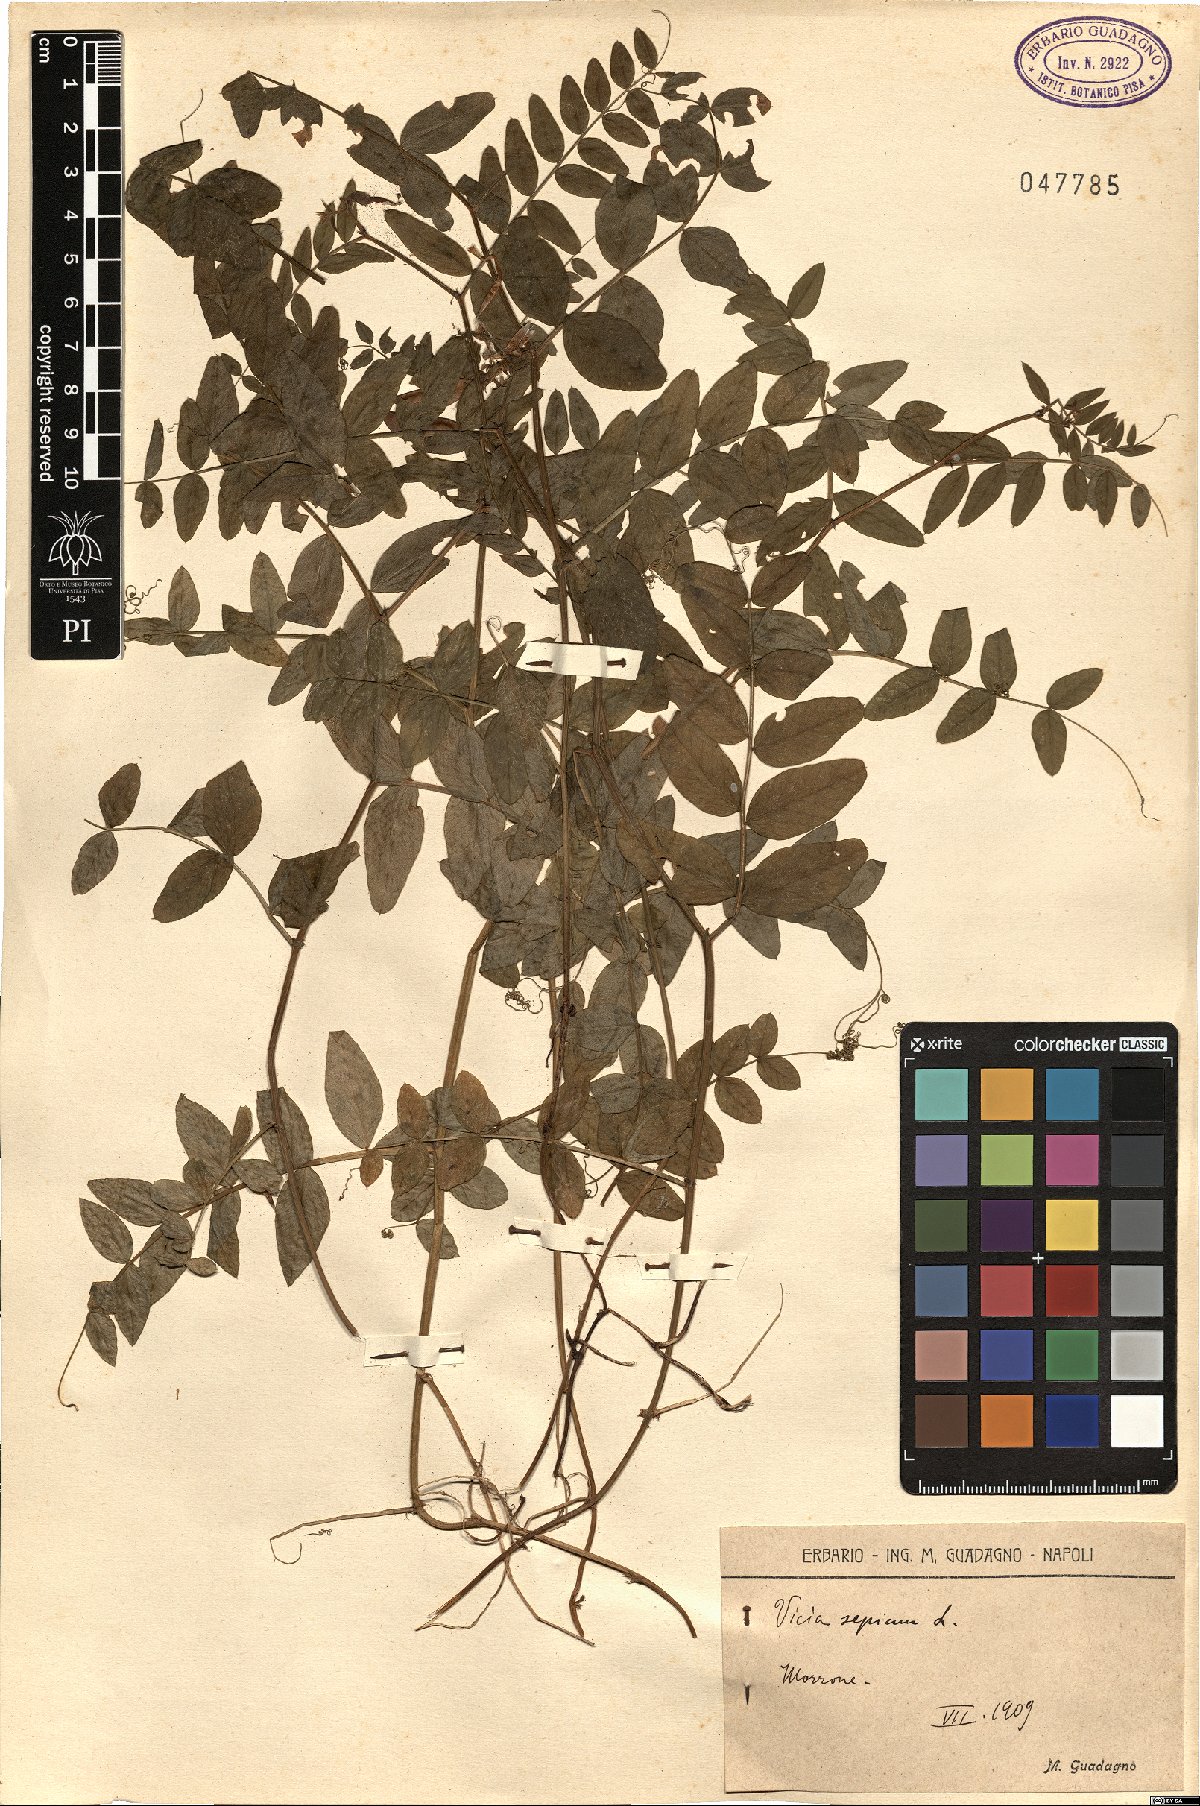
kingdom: Plantae
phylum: Tracheophyta
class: Magnoliopsida
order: Fabales
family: Fabaceae
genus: Vicia
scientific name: Vicia sepium
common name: Bush vetch
